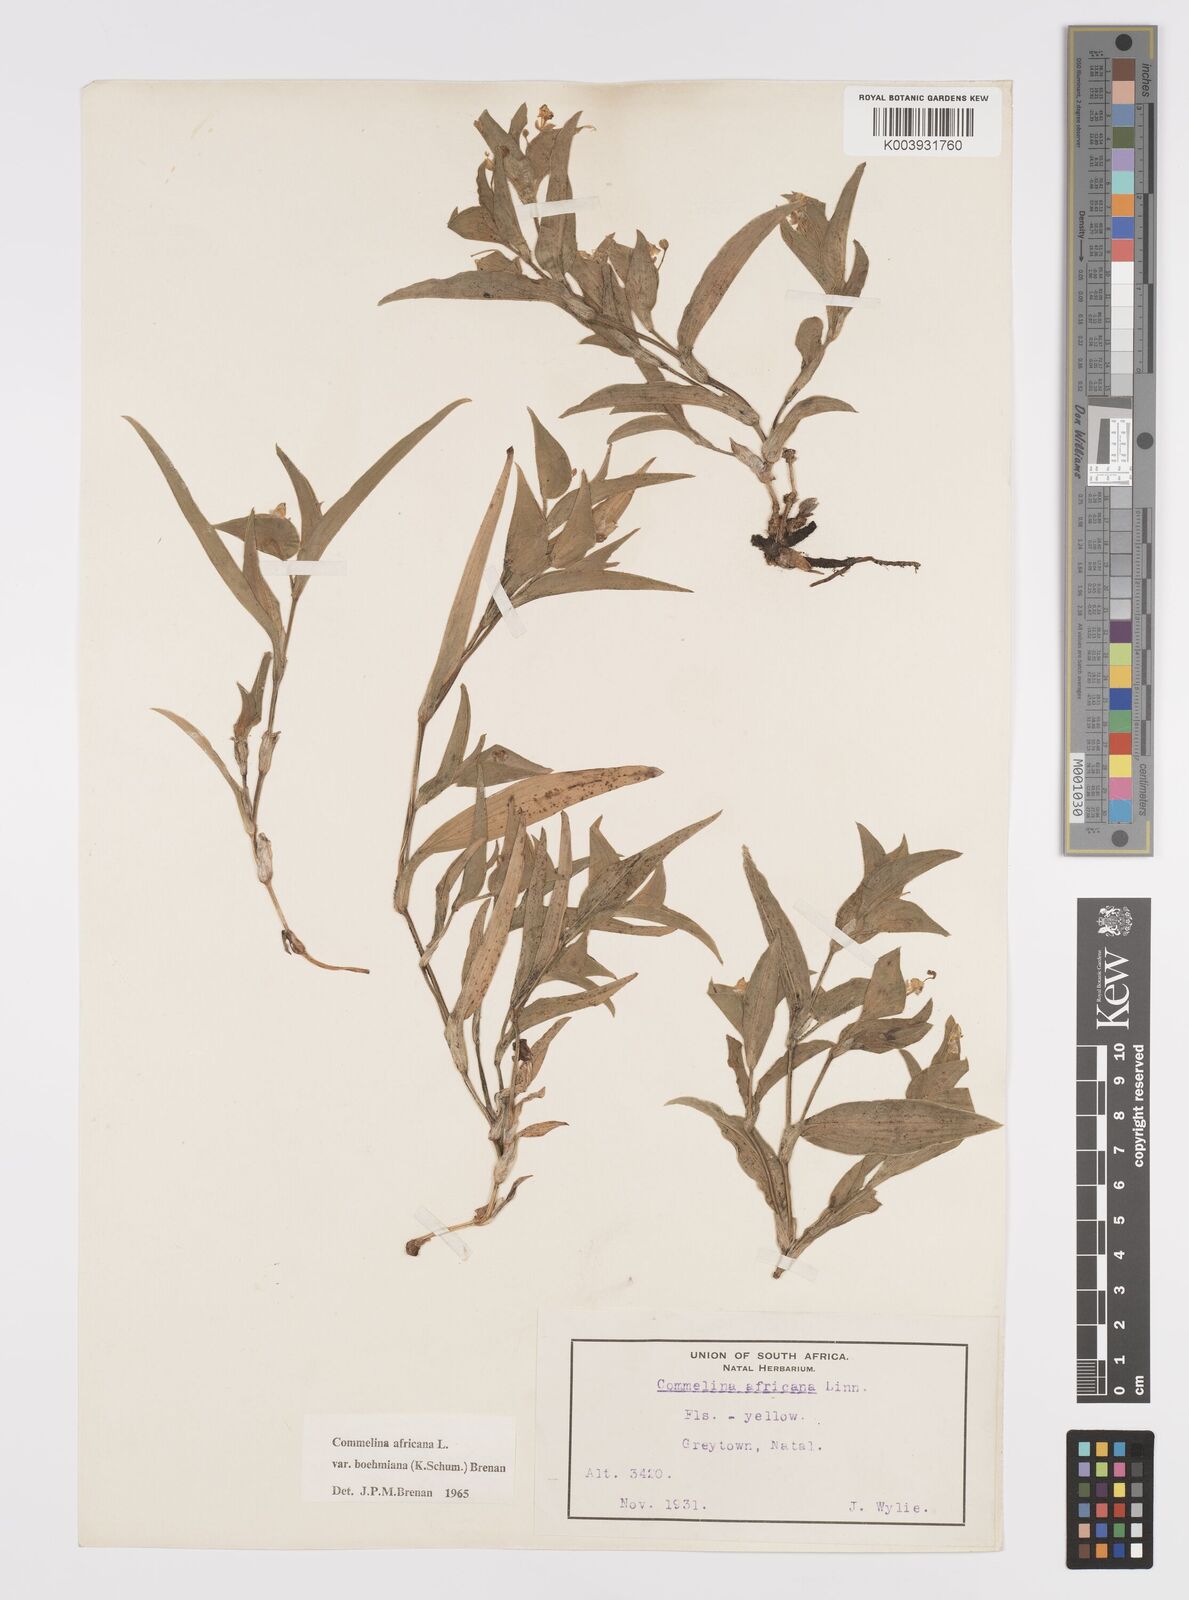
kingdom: Plantae
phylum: Tracheophyta
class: Liliopsida
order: Commelinales
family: Commelinaceae
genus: Commelina
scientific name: Commelina africana
